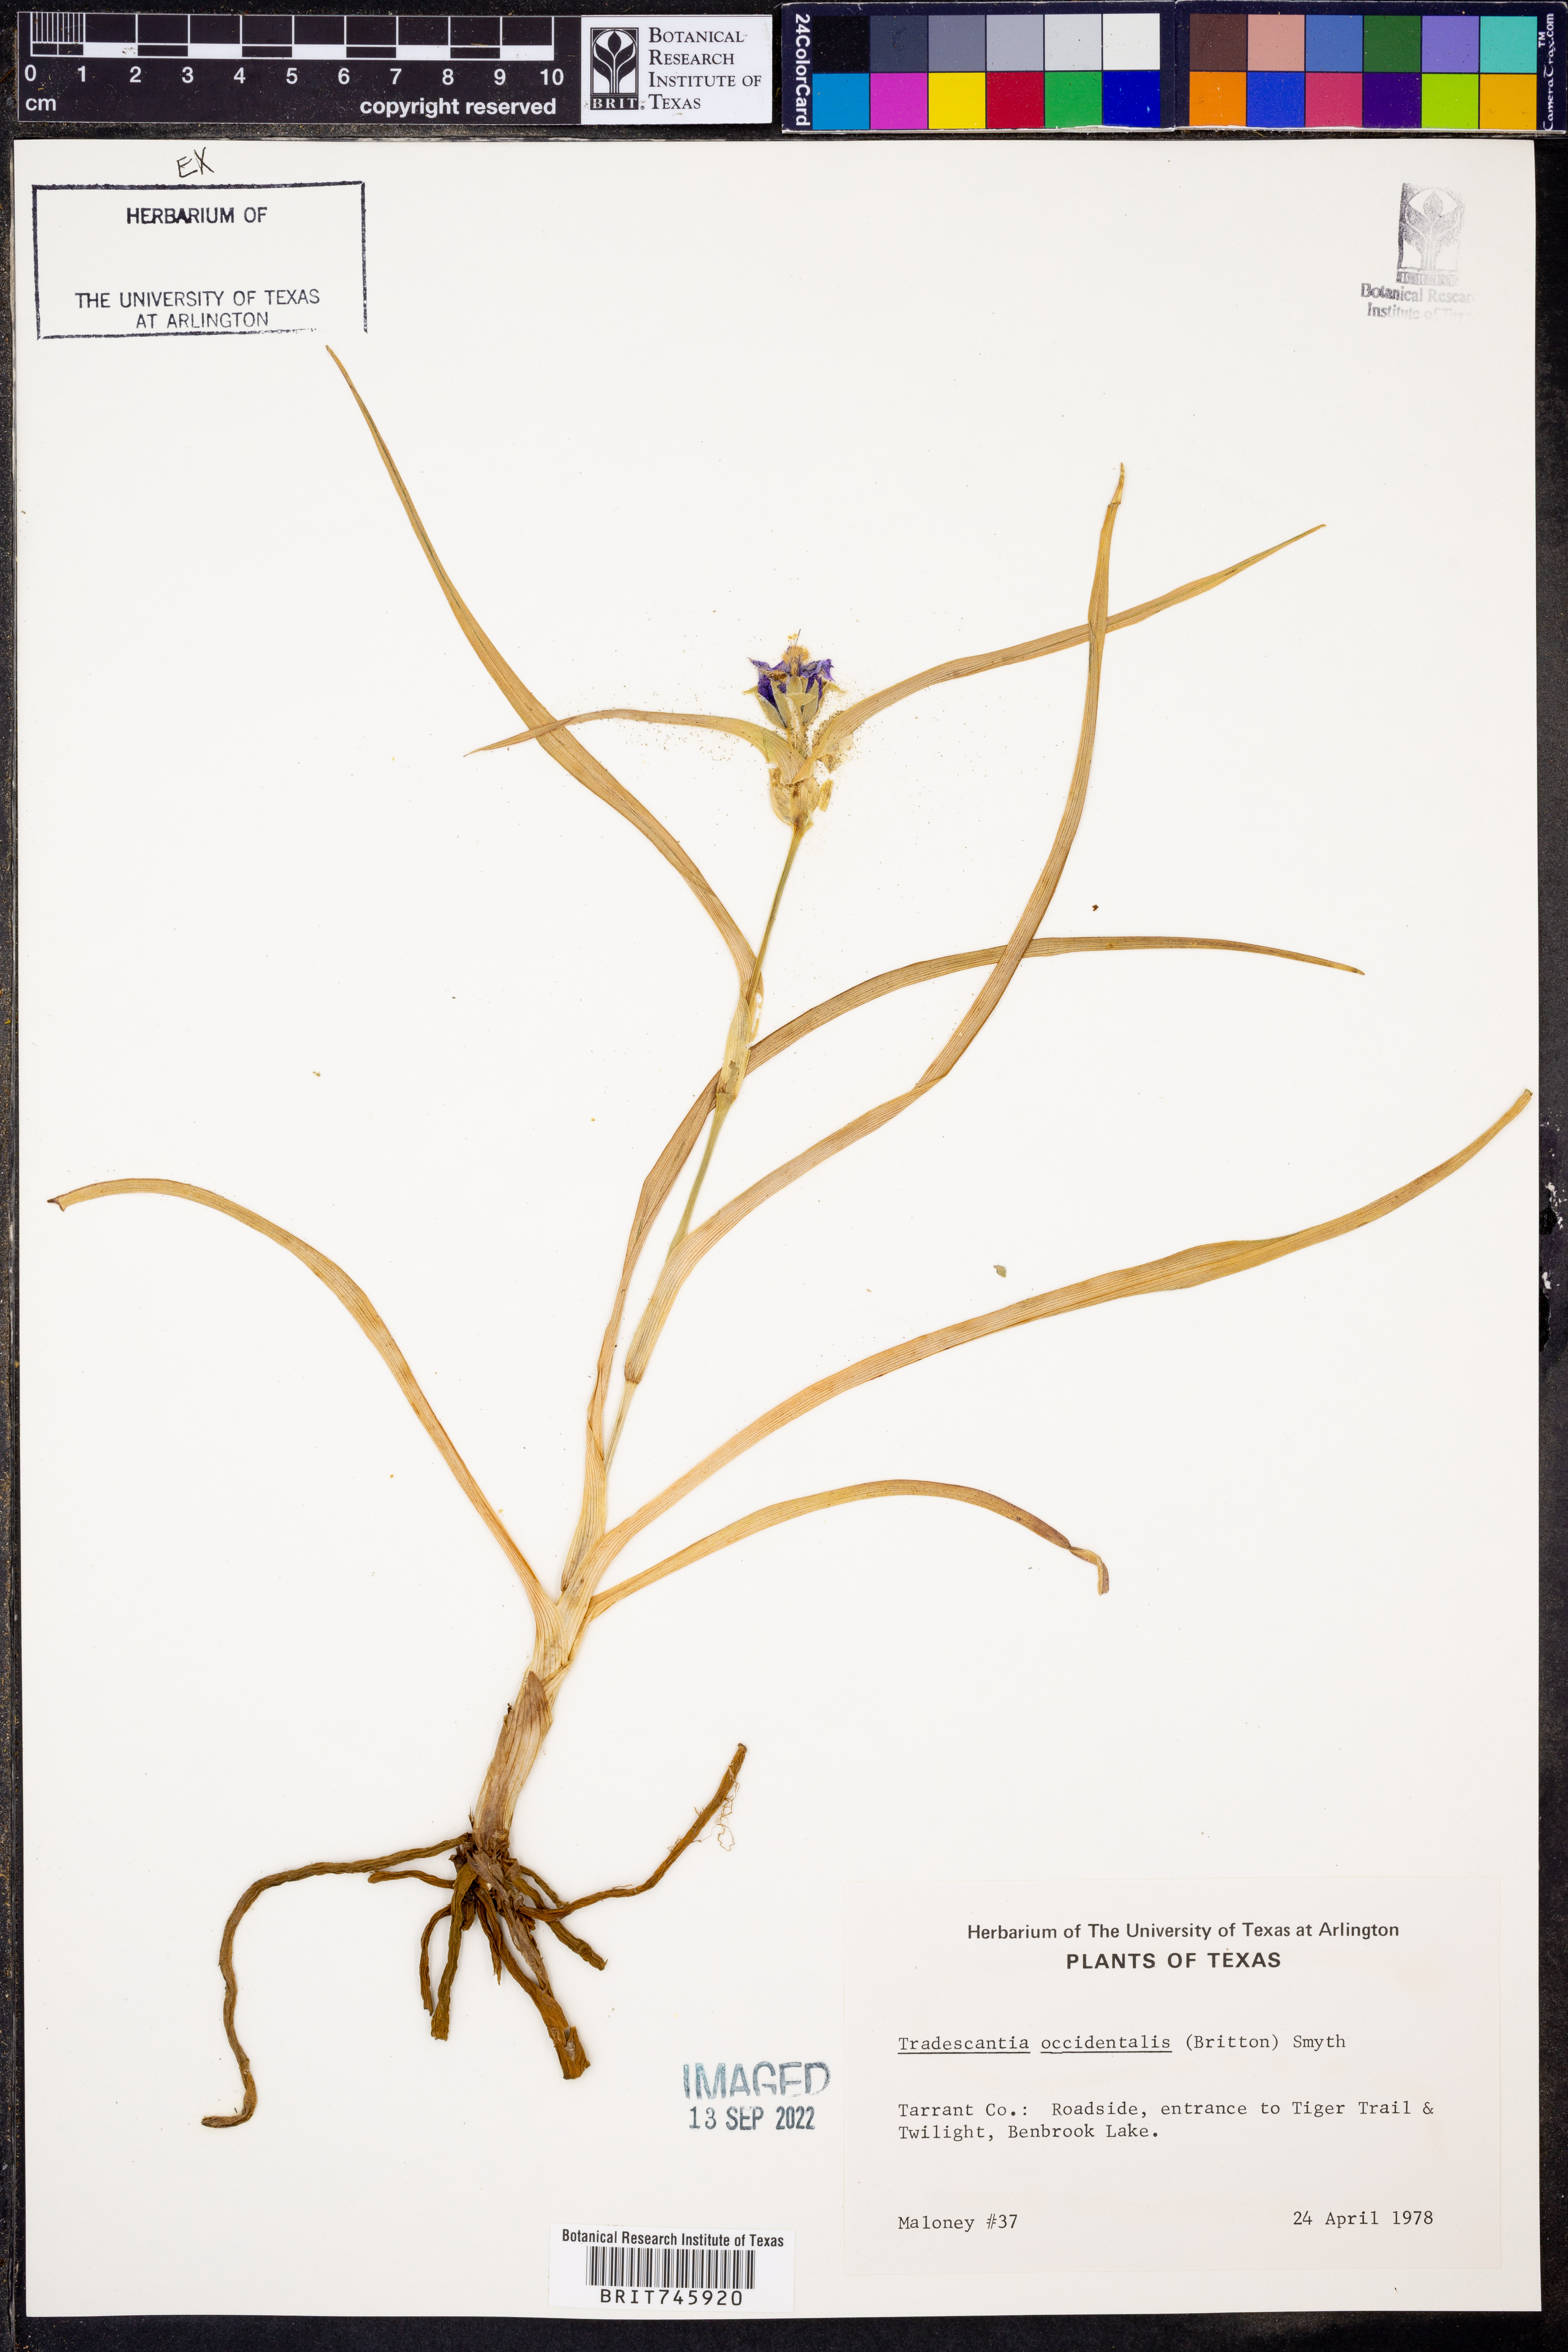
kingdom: Plantae
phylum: Tracheophyta
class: Liliopsida
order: Commelinales
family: Commelinaceae
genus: Tradescantia
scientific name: Tradescantia occidentalis
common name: Prairie spiderwort
